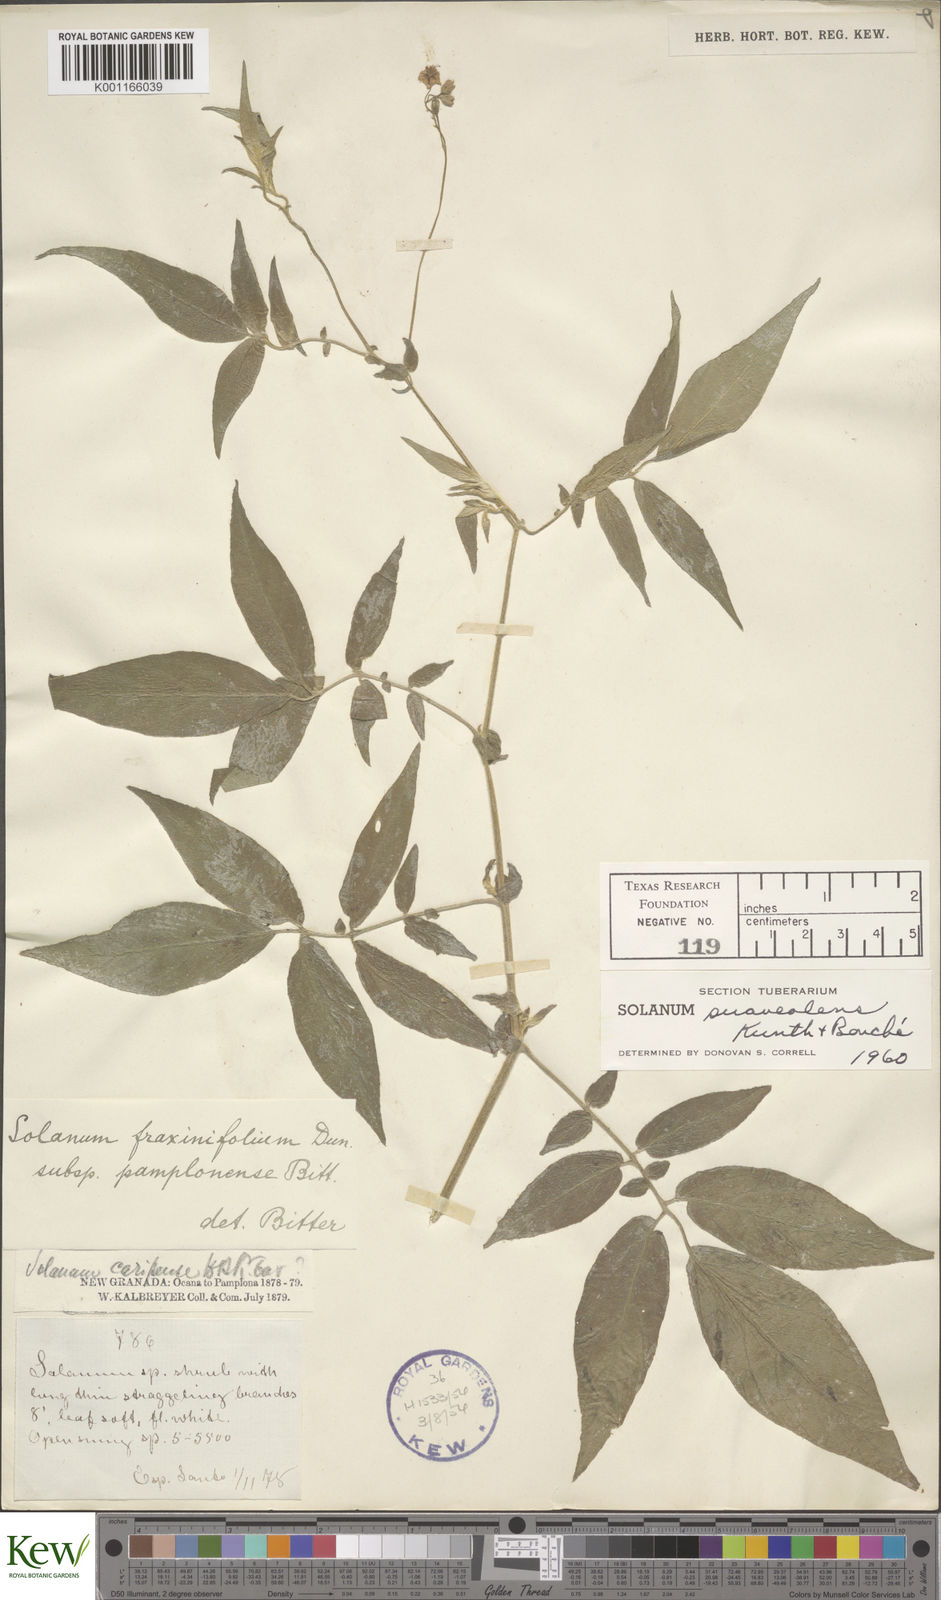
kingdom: Plantae
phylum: Tracheophyta
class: Magnoliopsida
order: Solanales
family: Solanaceae
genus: Solanum
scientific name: Solanum suaveolens
